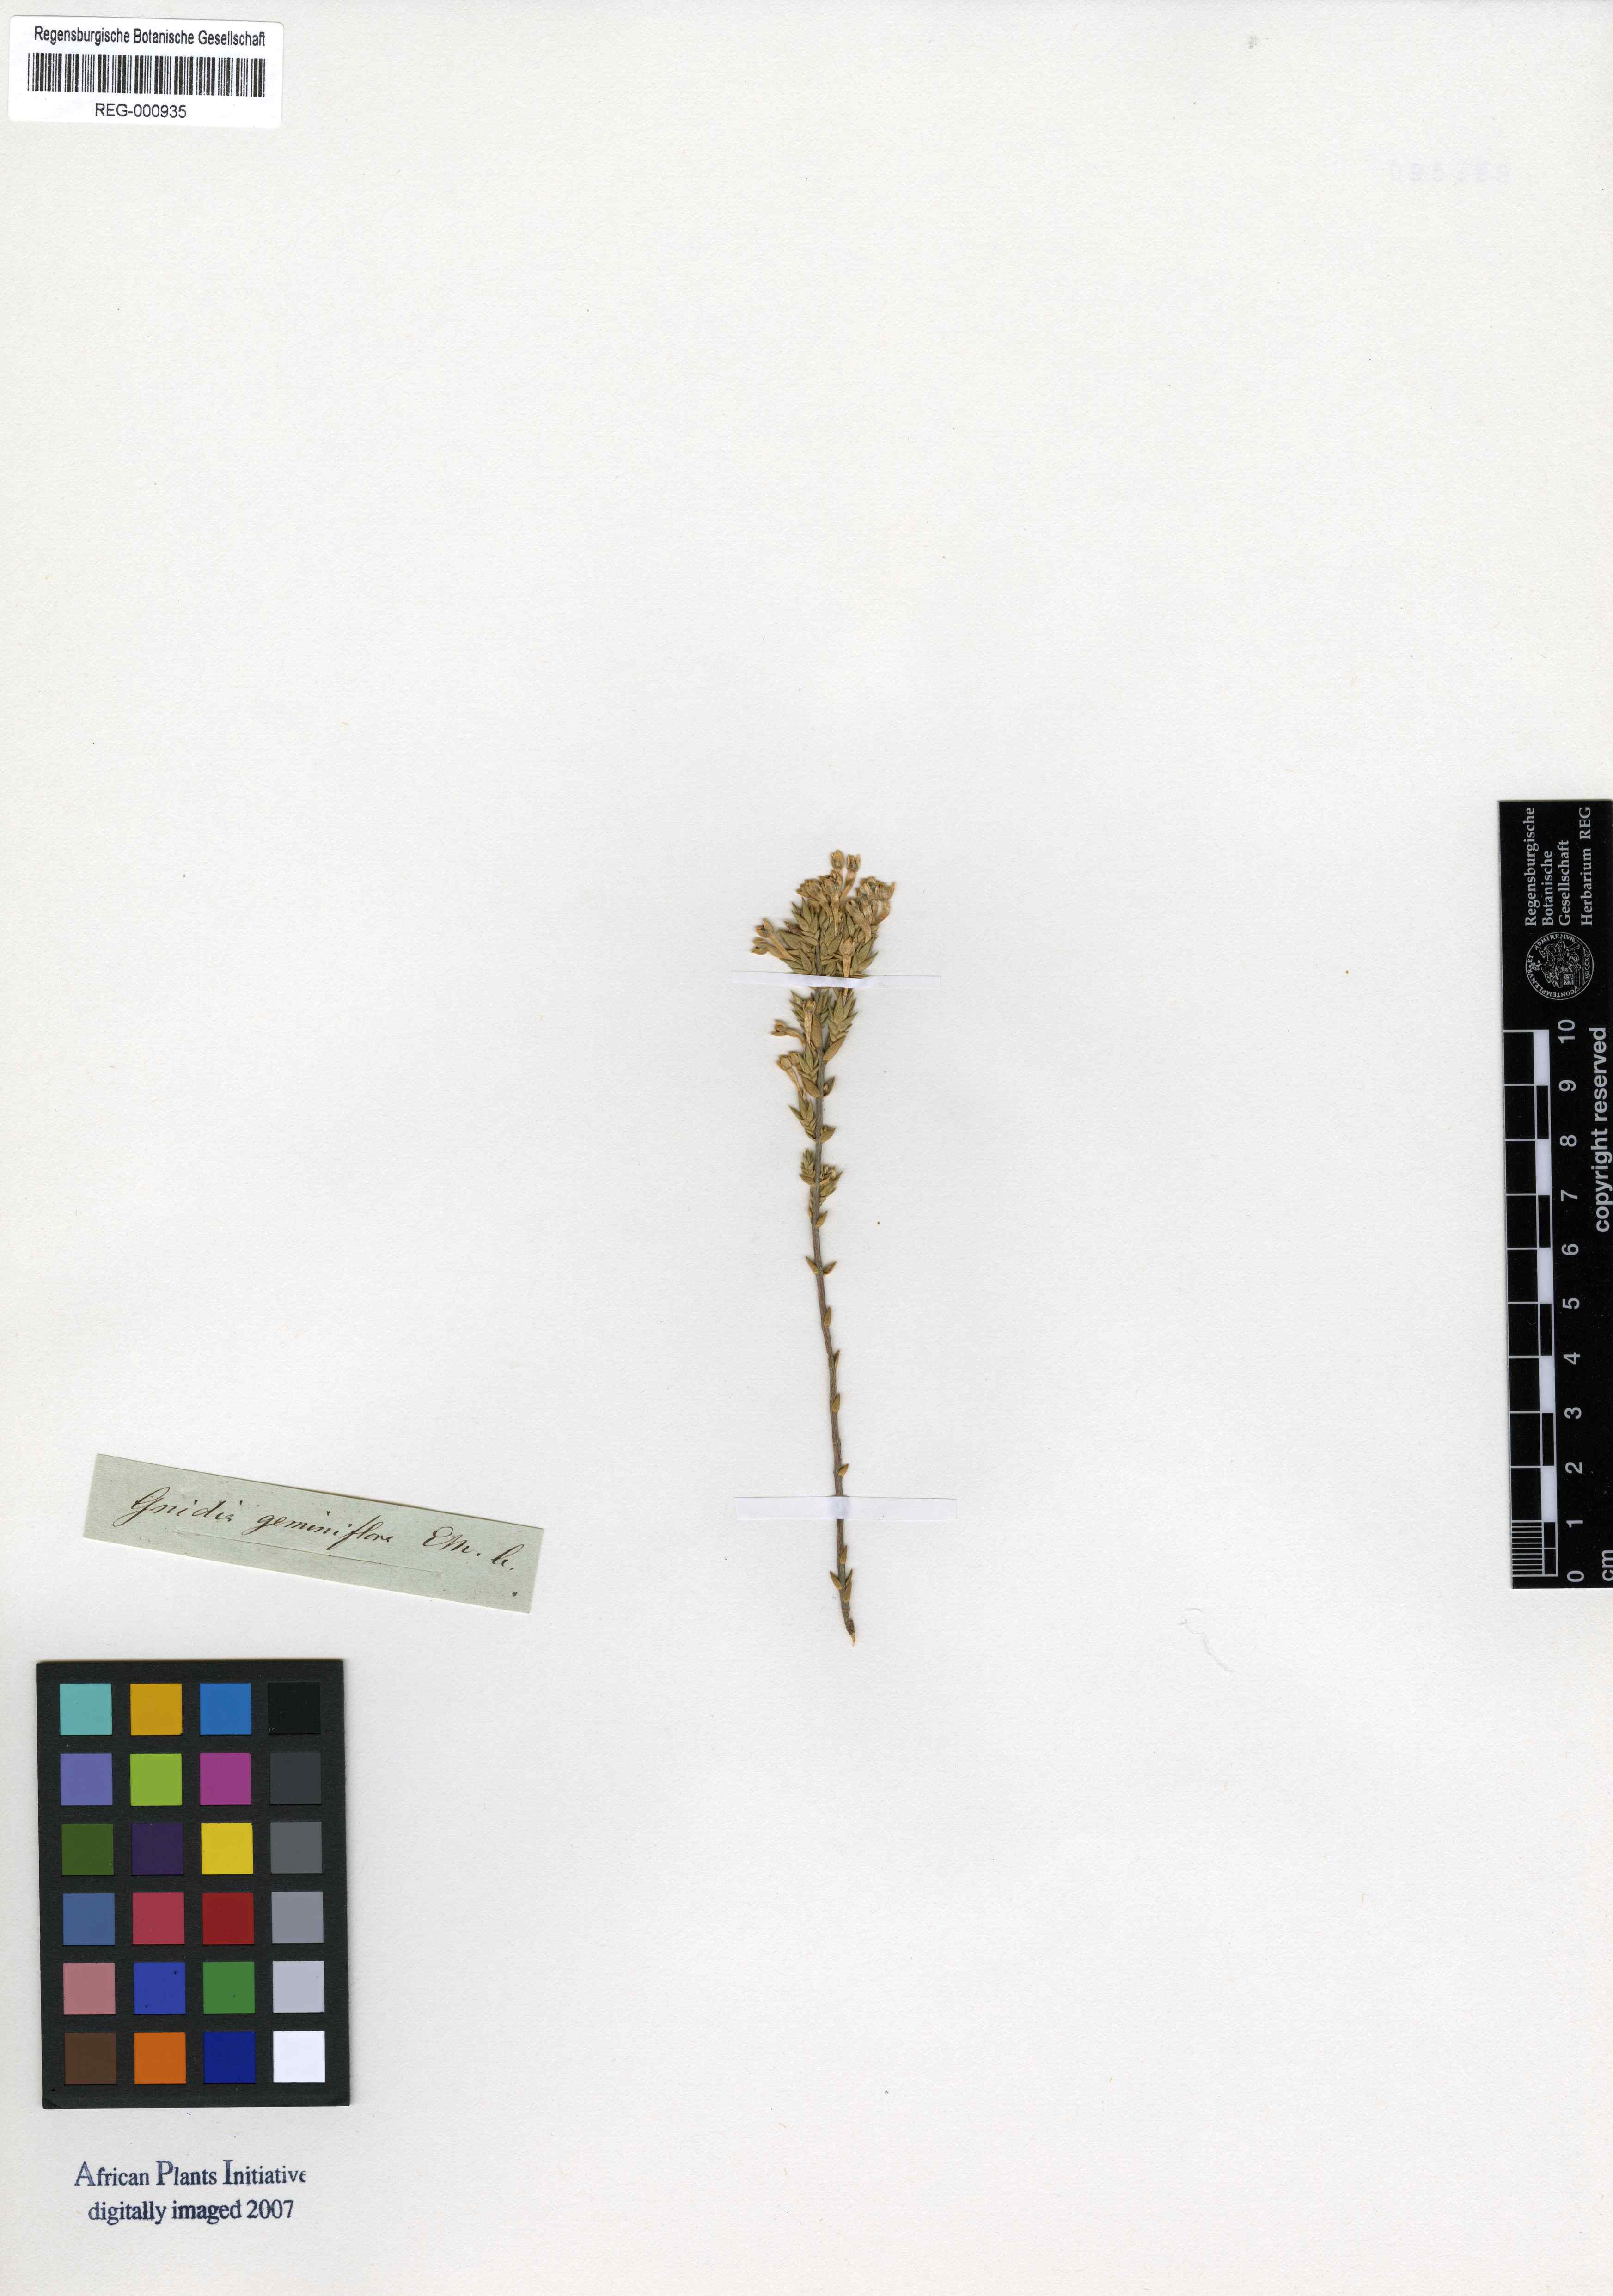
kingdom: Plantae
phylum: Tracheophyta
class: Magnoliopsida
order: Malvales
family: Thymelaeaceae
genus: Gnidia
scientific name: Gnidia geminiflora
